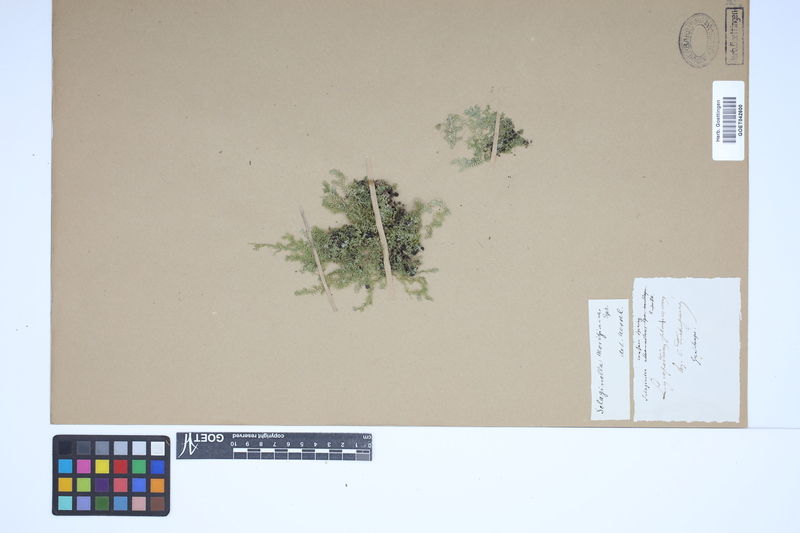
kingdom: Plantae
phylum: Tracheophyta
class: Lycopodiopsida
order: Selaginellales
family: Selaginellaceae
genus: Selaginella
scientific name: Selaginella moritziana
